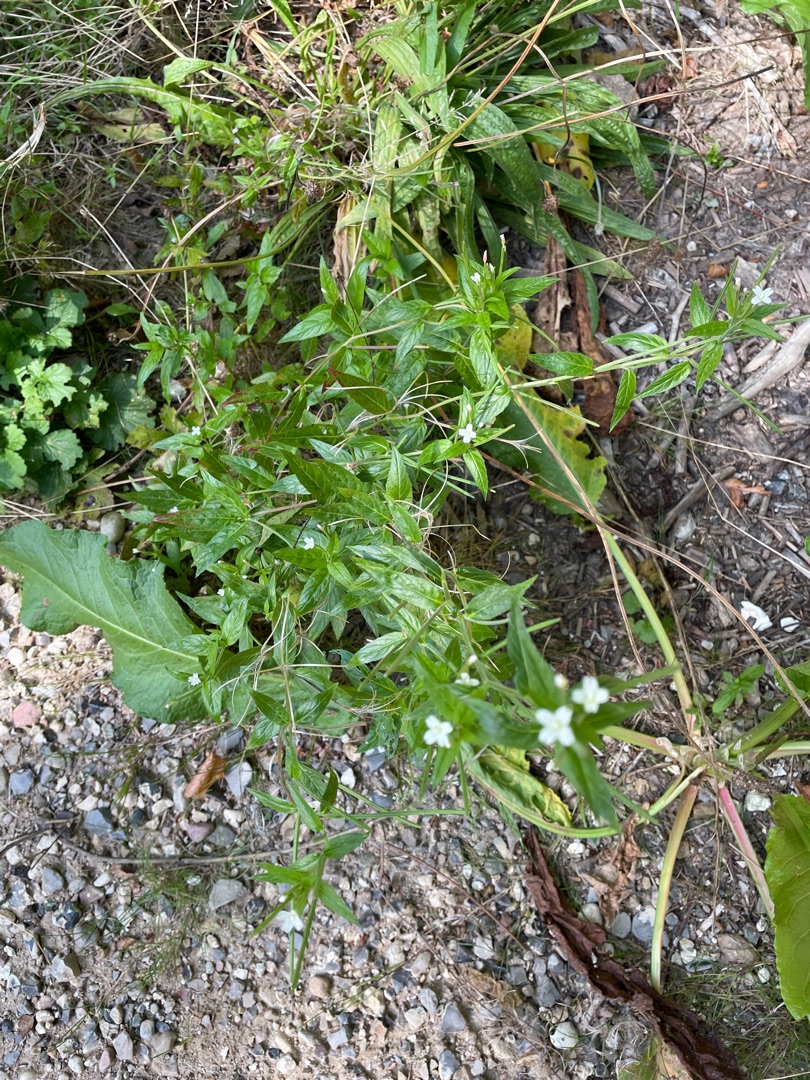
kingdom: Plantae
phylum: Tracheophyta
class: Magnoliopsida
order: Myrtales
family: Onagraceae
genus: Epilobium
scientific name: Epilobium ciliatum
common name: Alaska-dueurt
